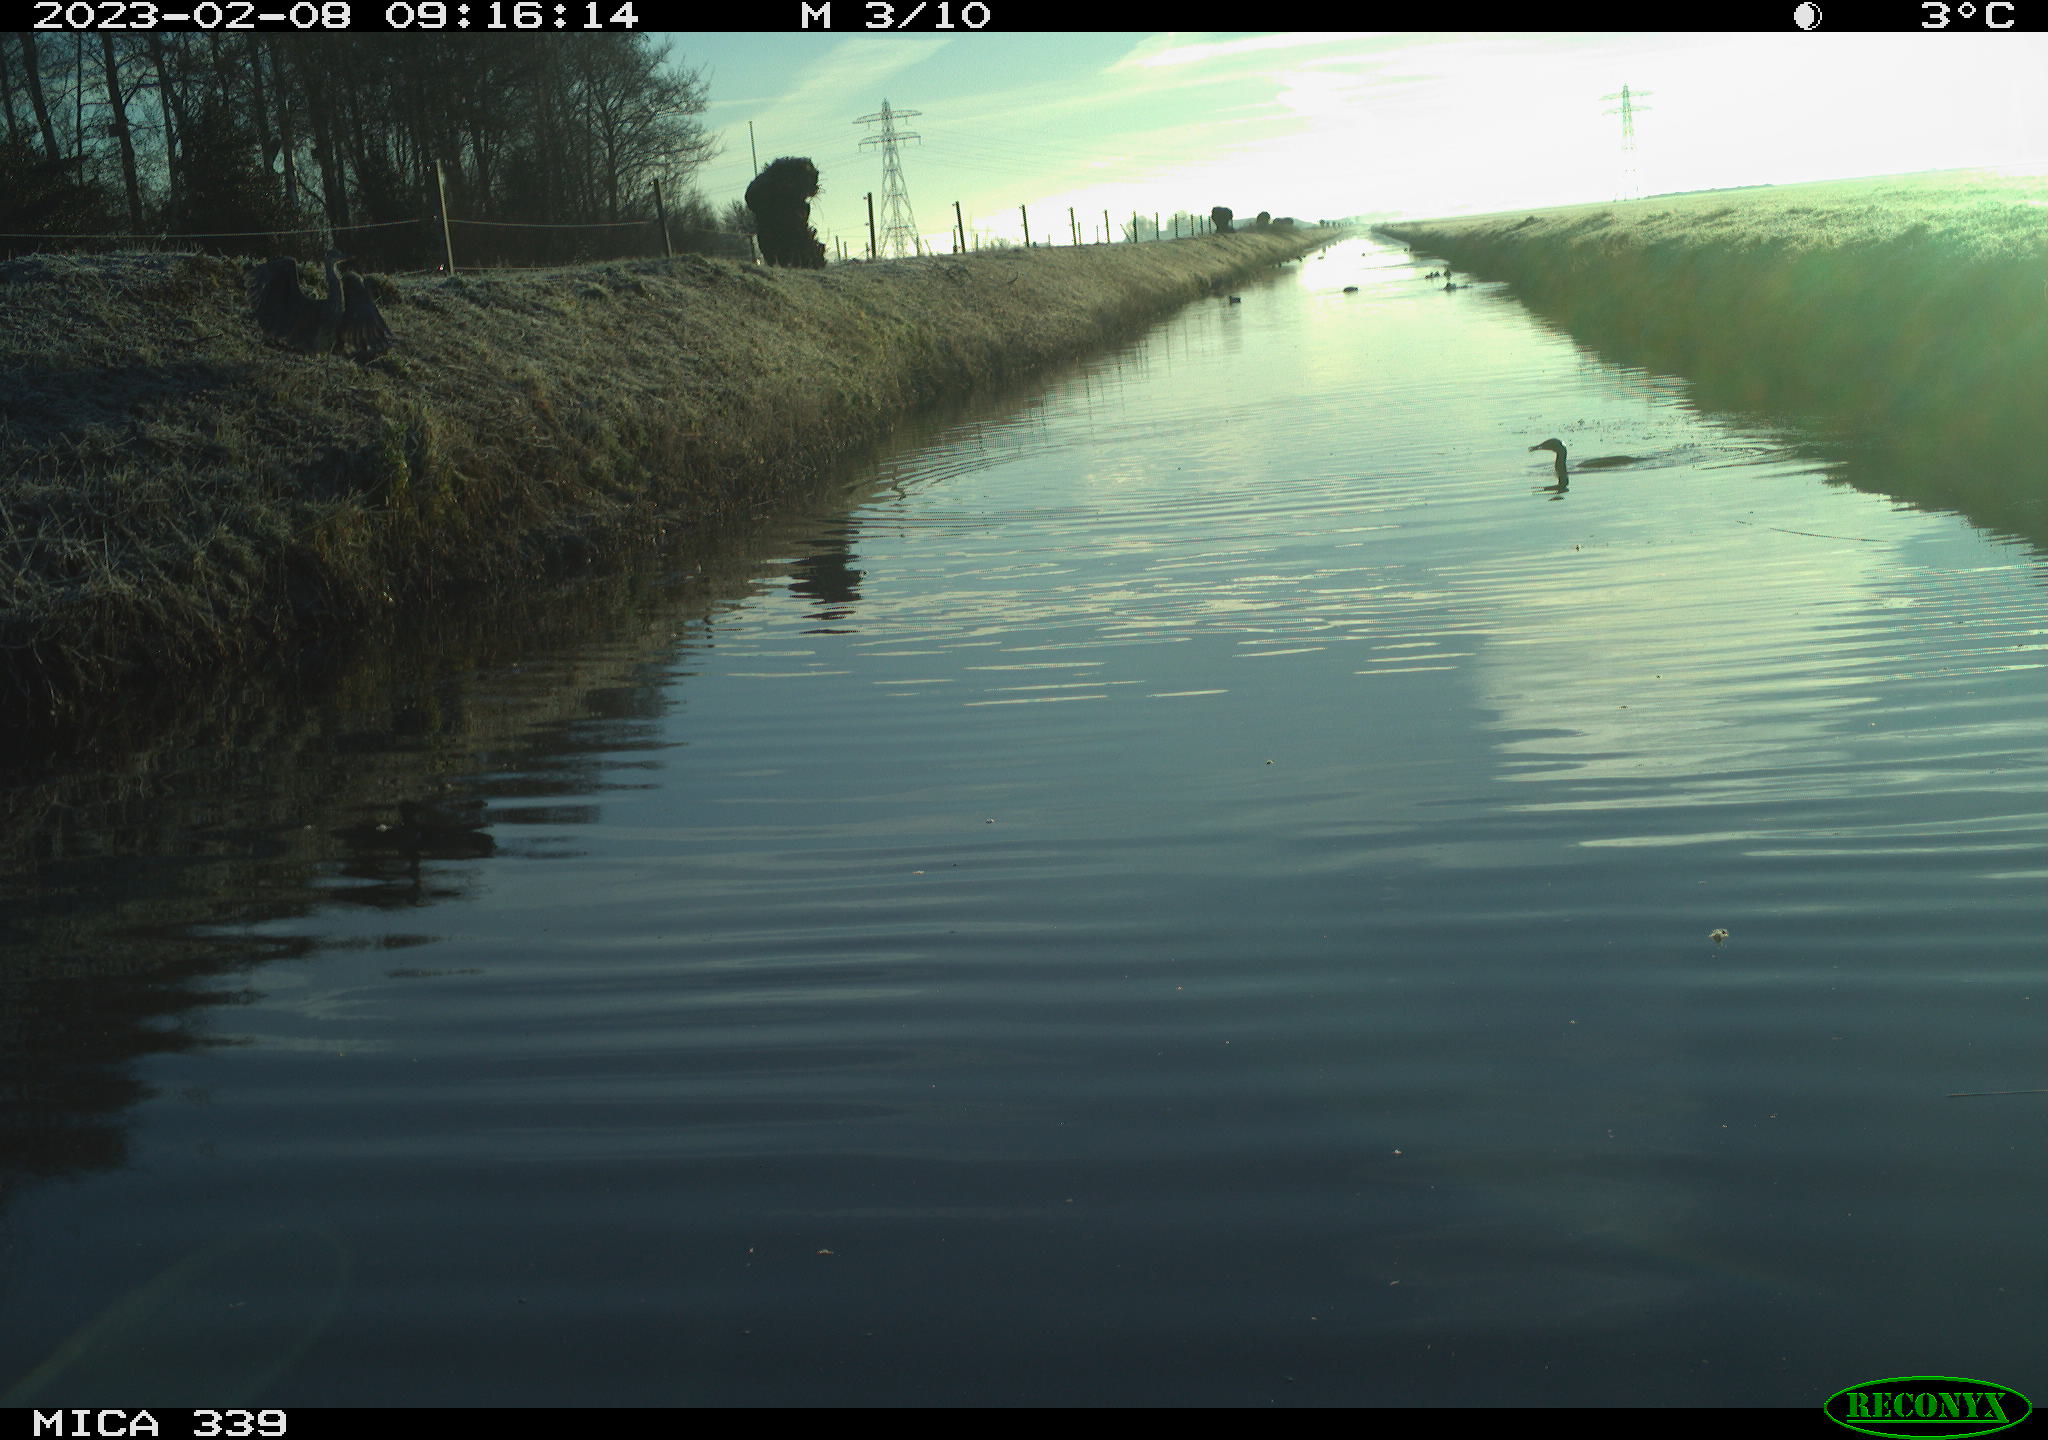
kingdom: Animalia
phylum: Chordata
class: Aves
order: Suliformes
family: Phalacrocoracidae
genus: Phalacrocorax
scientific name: Phalacrocorax carbo
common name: Great cormorant
